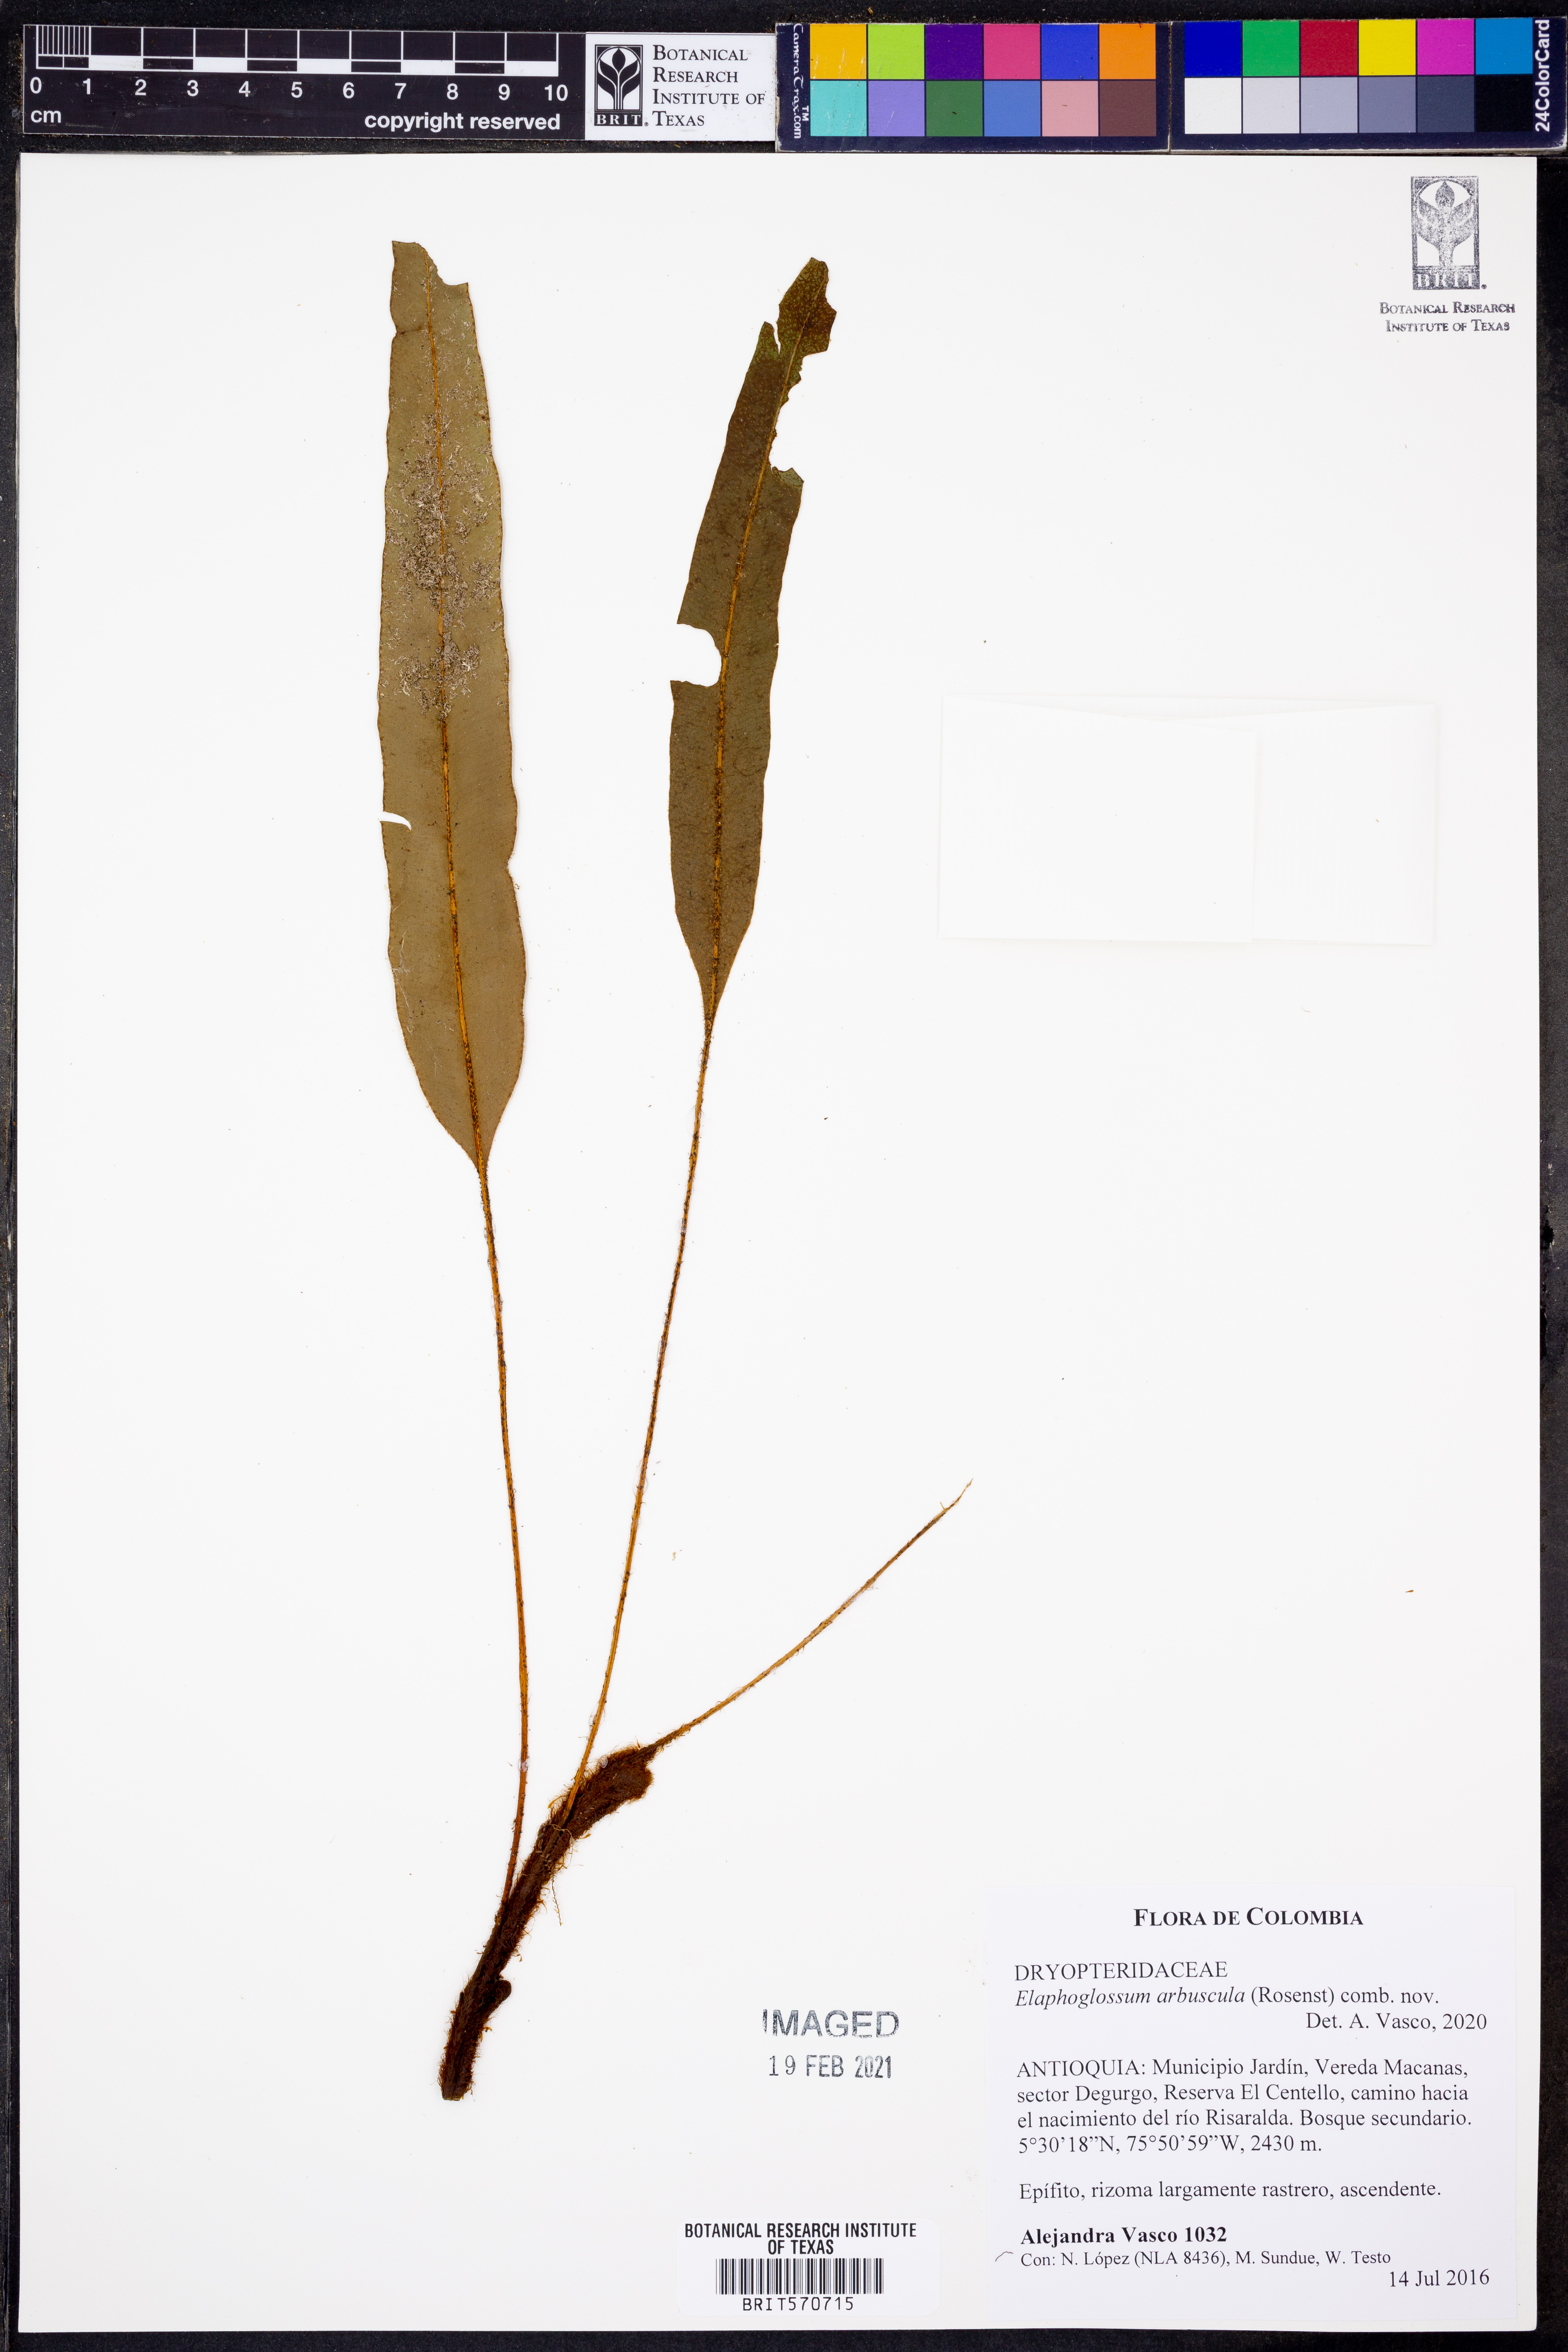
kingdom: Plantae
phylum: Tracheophyta
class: Polypodiopsida
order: Polypodiales
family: Dryopteridaceae
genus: Elaphoglossum
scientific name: Elaphoglossum
